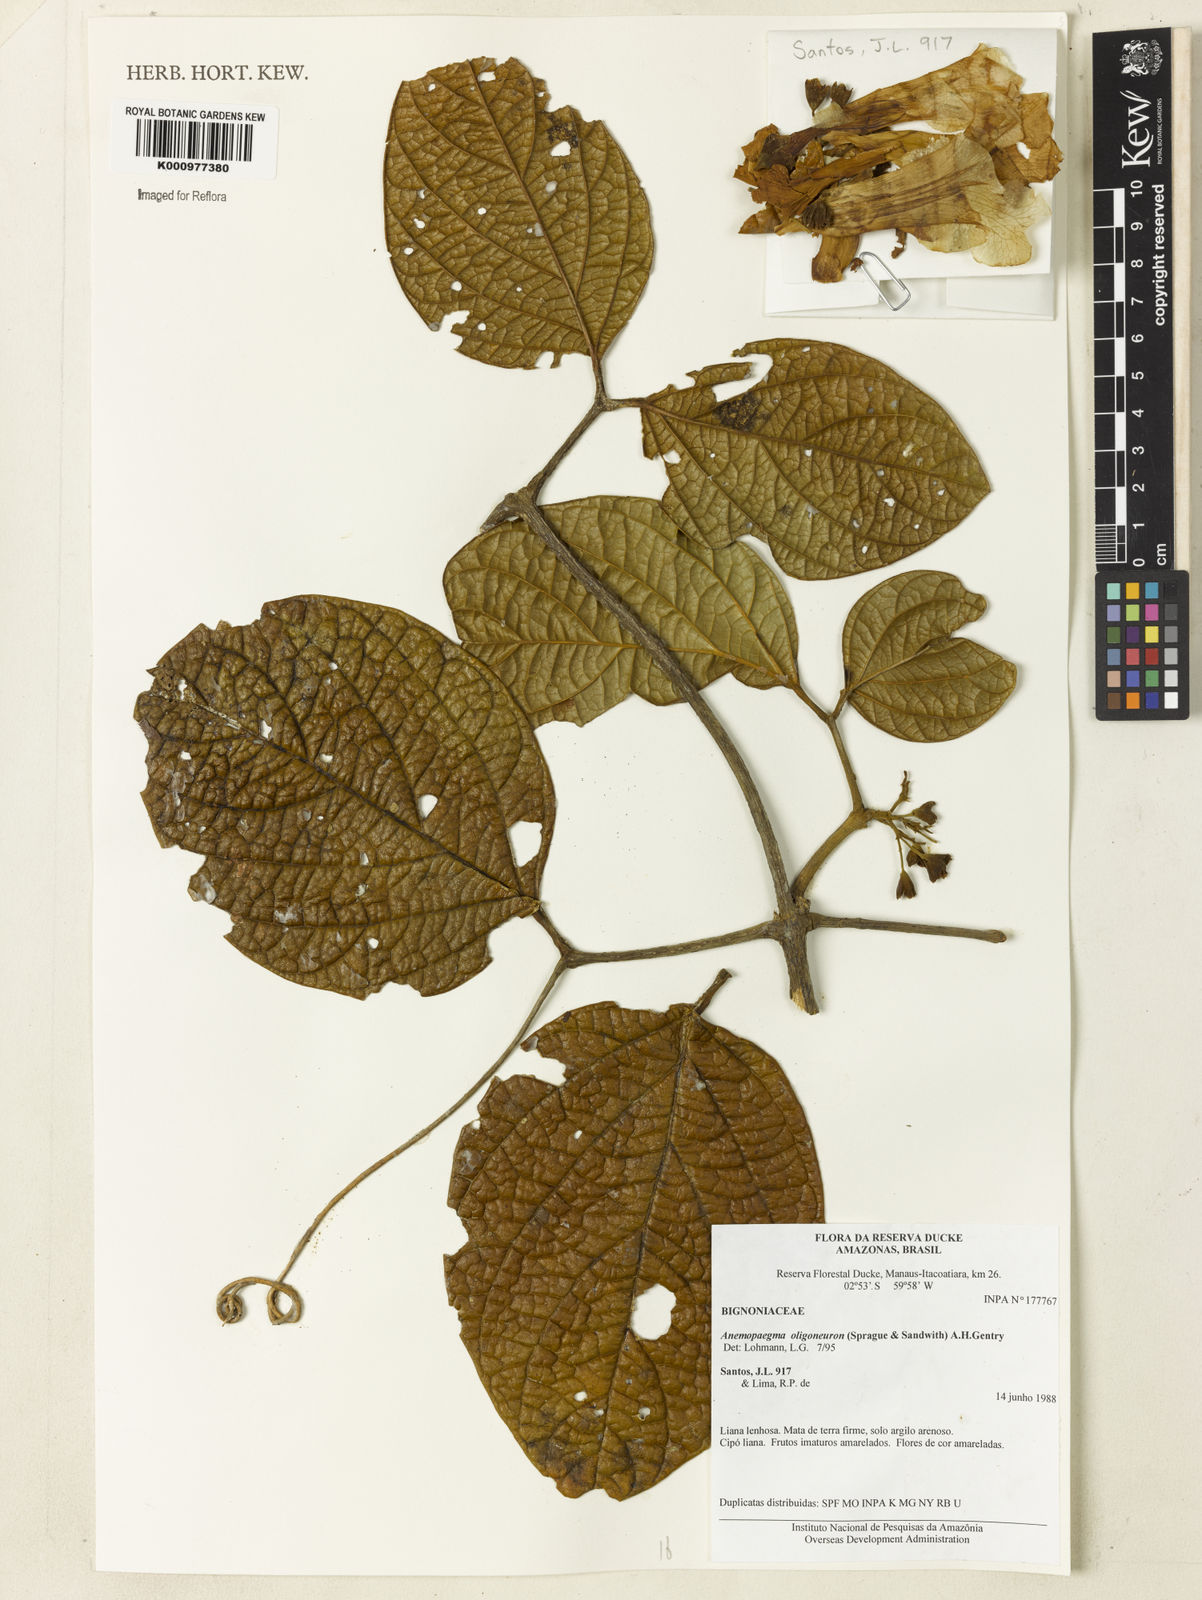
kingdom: Plantae
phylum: Tracheophyta
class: Magnoliopsida
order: Lamiales
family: Bignoniaceae
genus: Anemopaegma
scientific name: Anemopaegma oligoneuron
